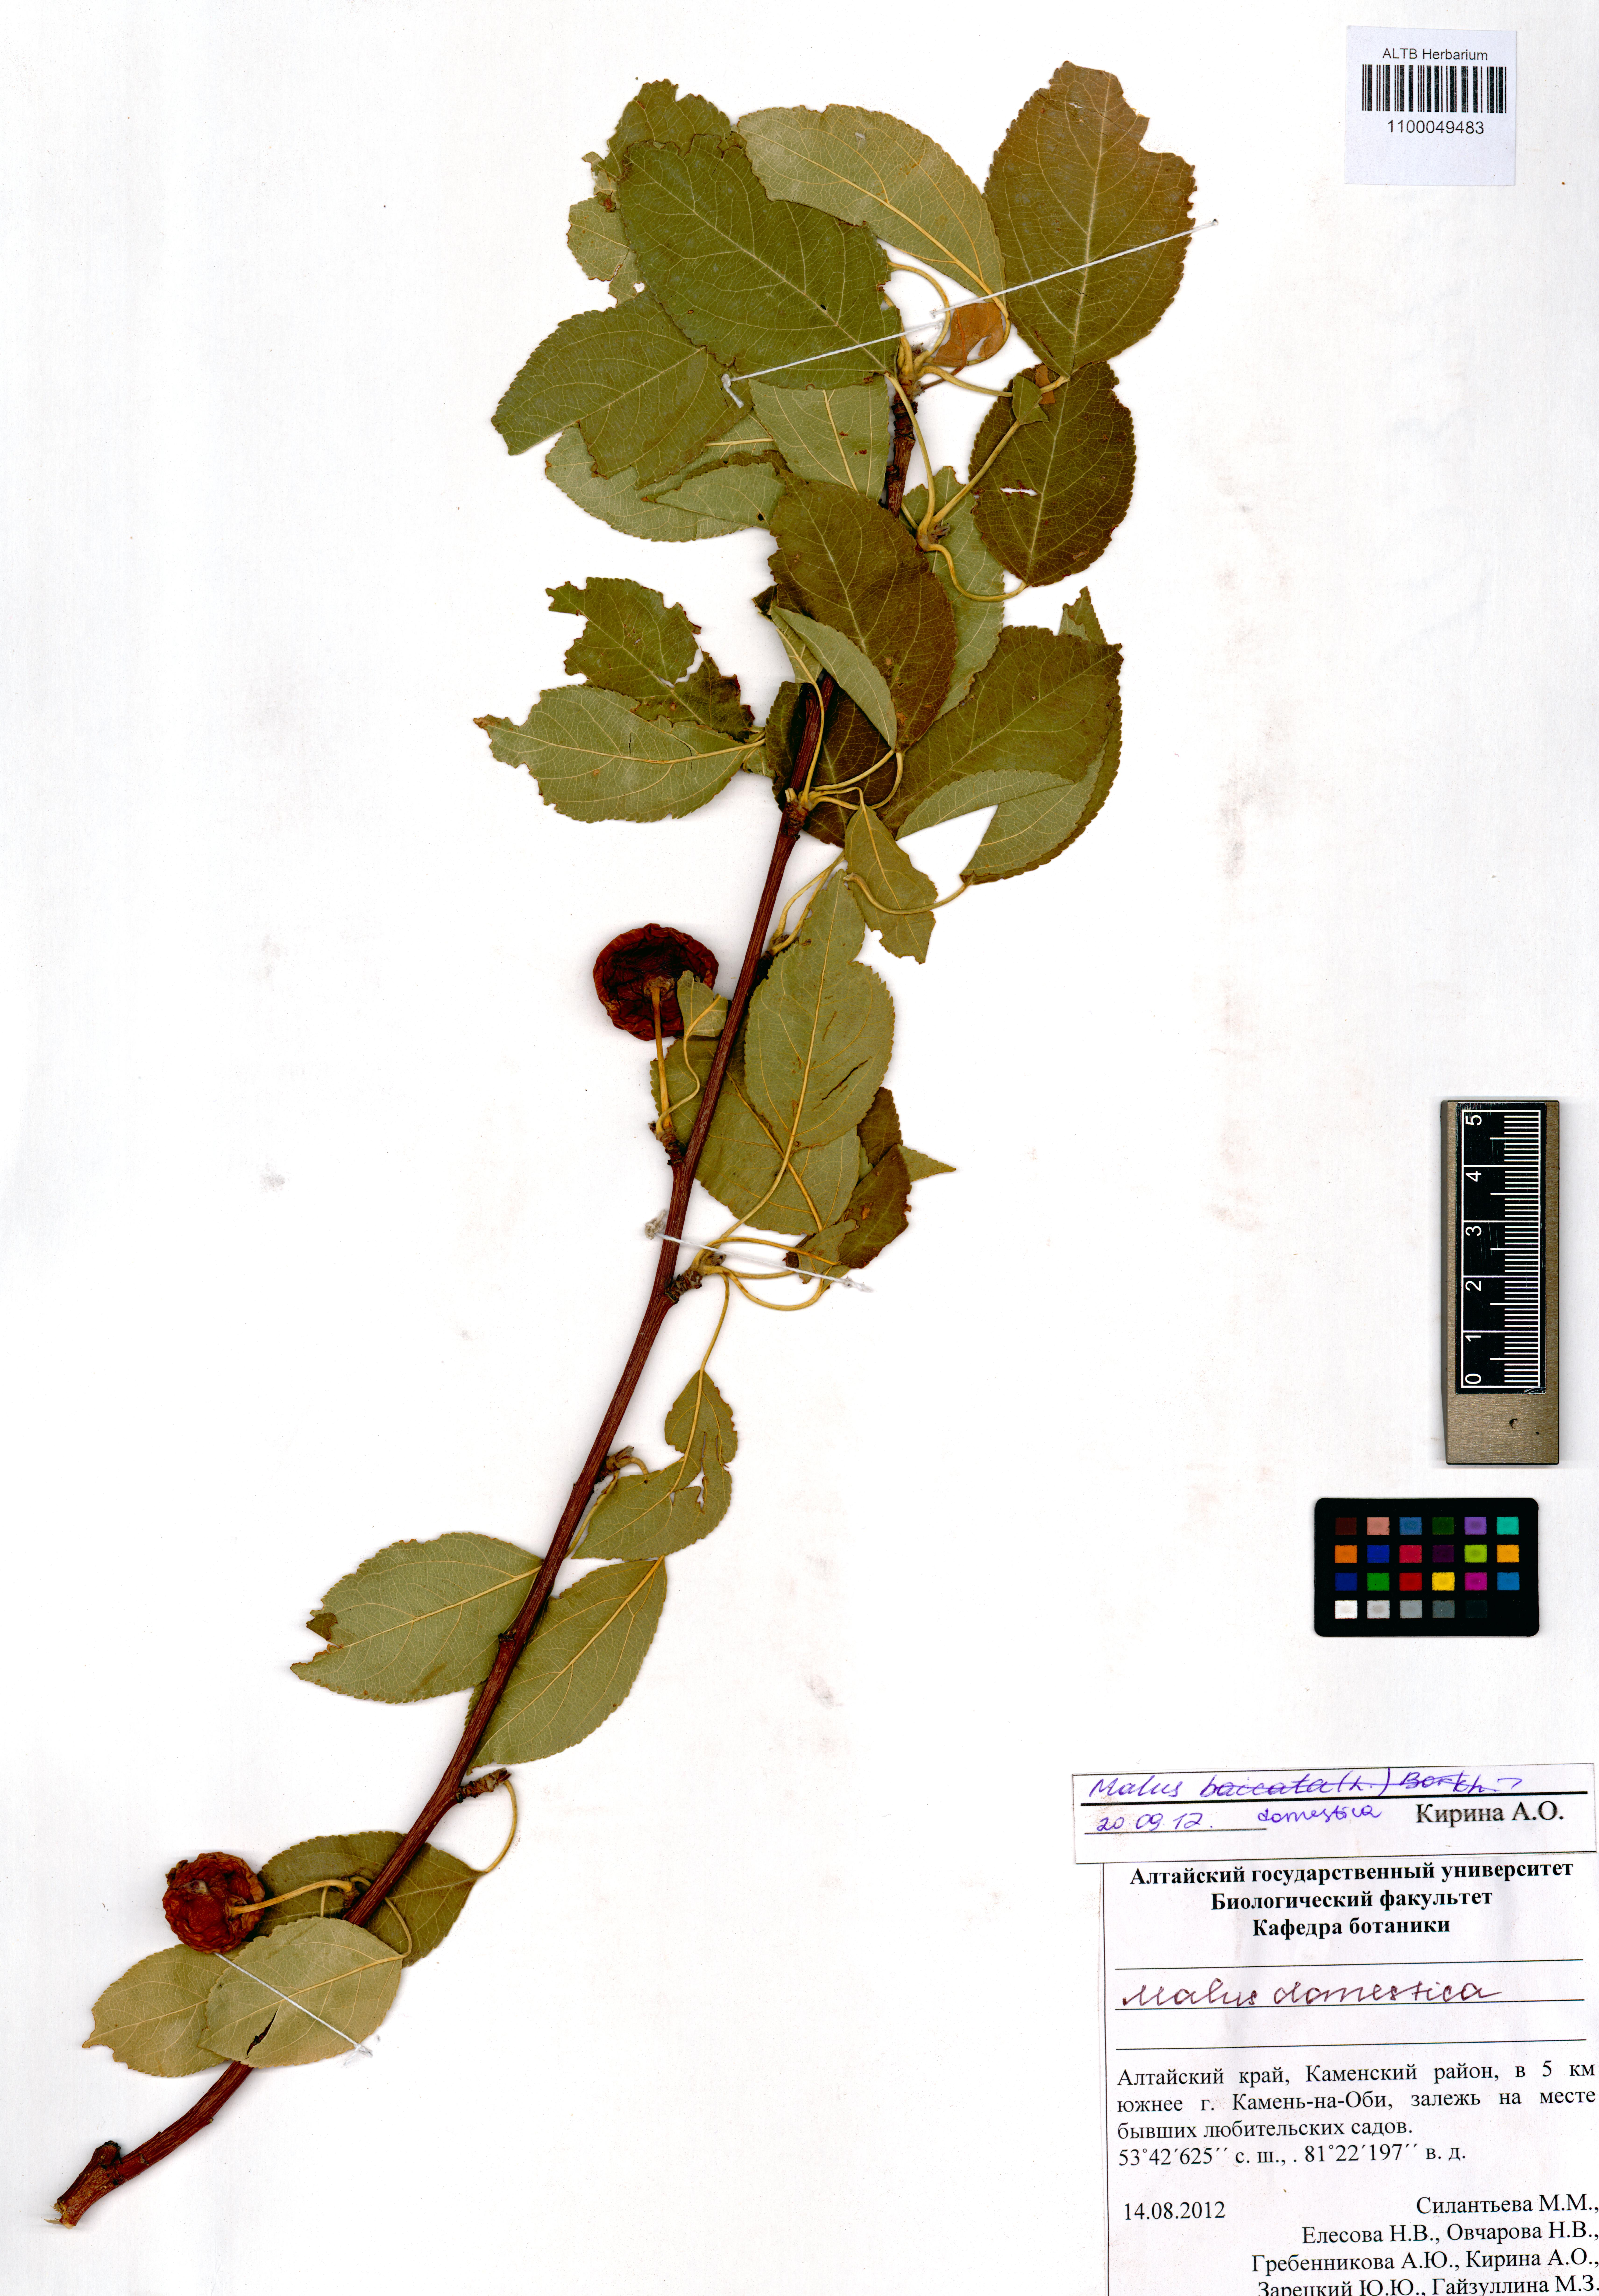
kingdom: Plantae
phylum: Tracheophyta
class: Magnoliopsida
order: Rosales
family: Rosaceae
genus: Malus
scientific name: Malus domestica
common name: Apple
